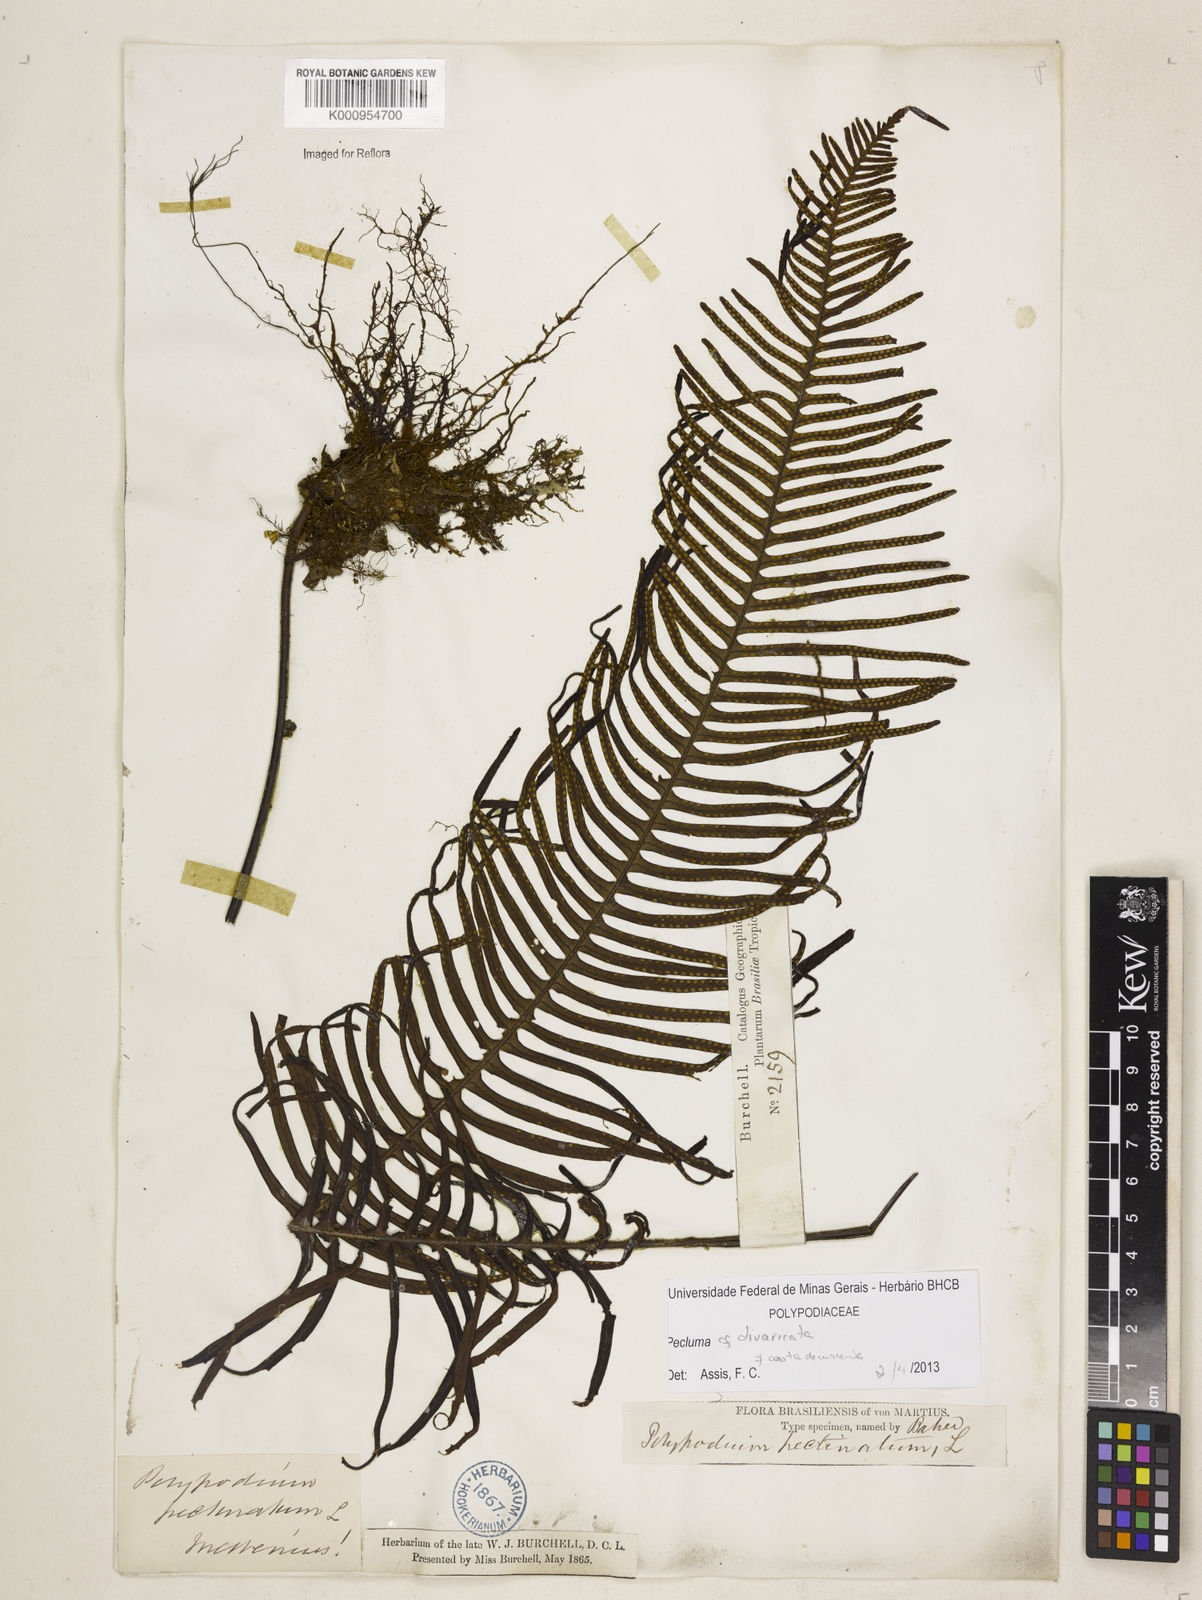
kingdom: Plantae
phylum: Tracheophyta
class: Polypodiopsida
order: Polypodiales
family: Polypodiaceae
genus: Pecluma
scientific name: Pecluma divaricata
